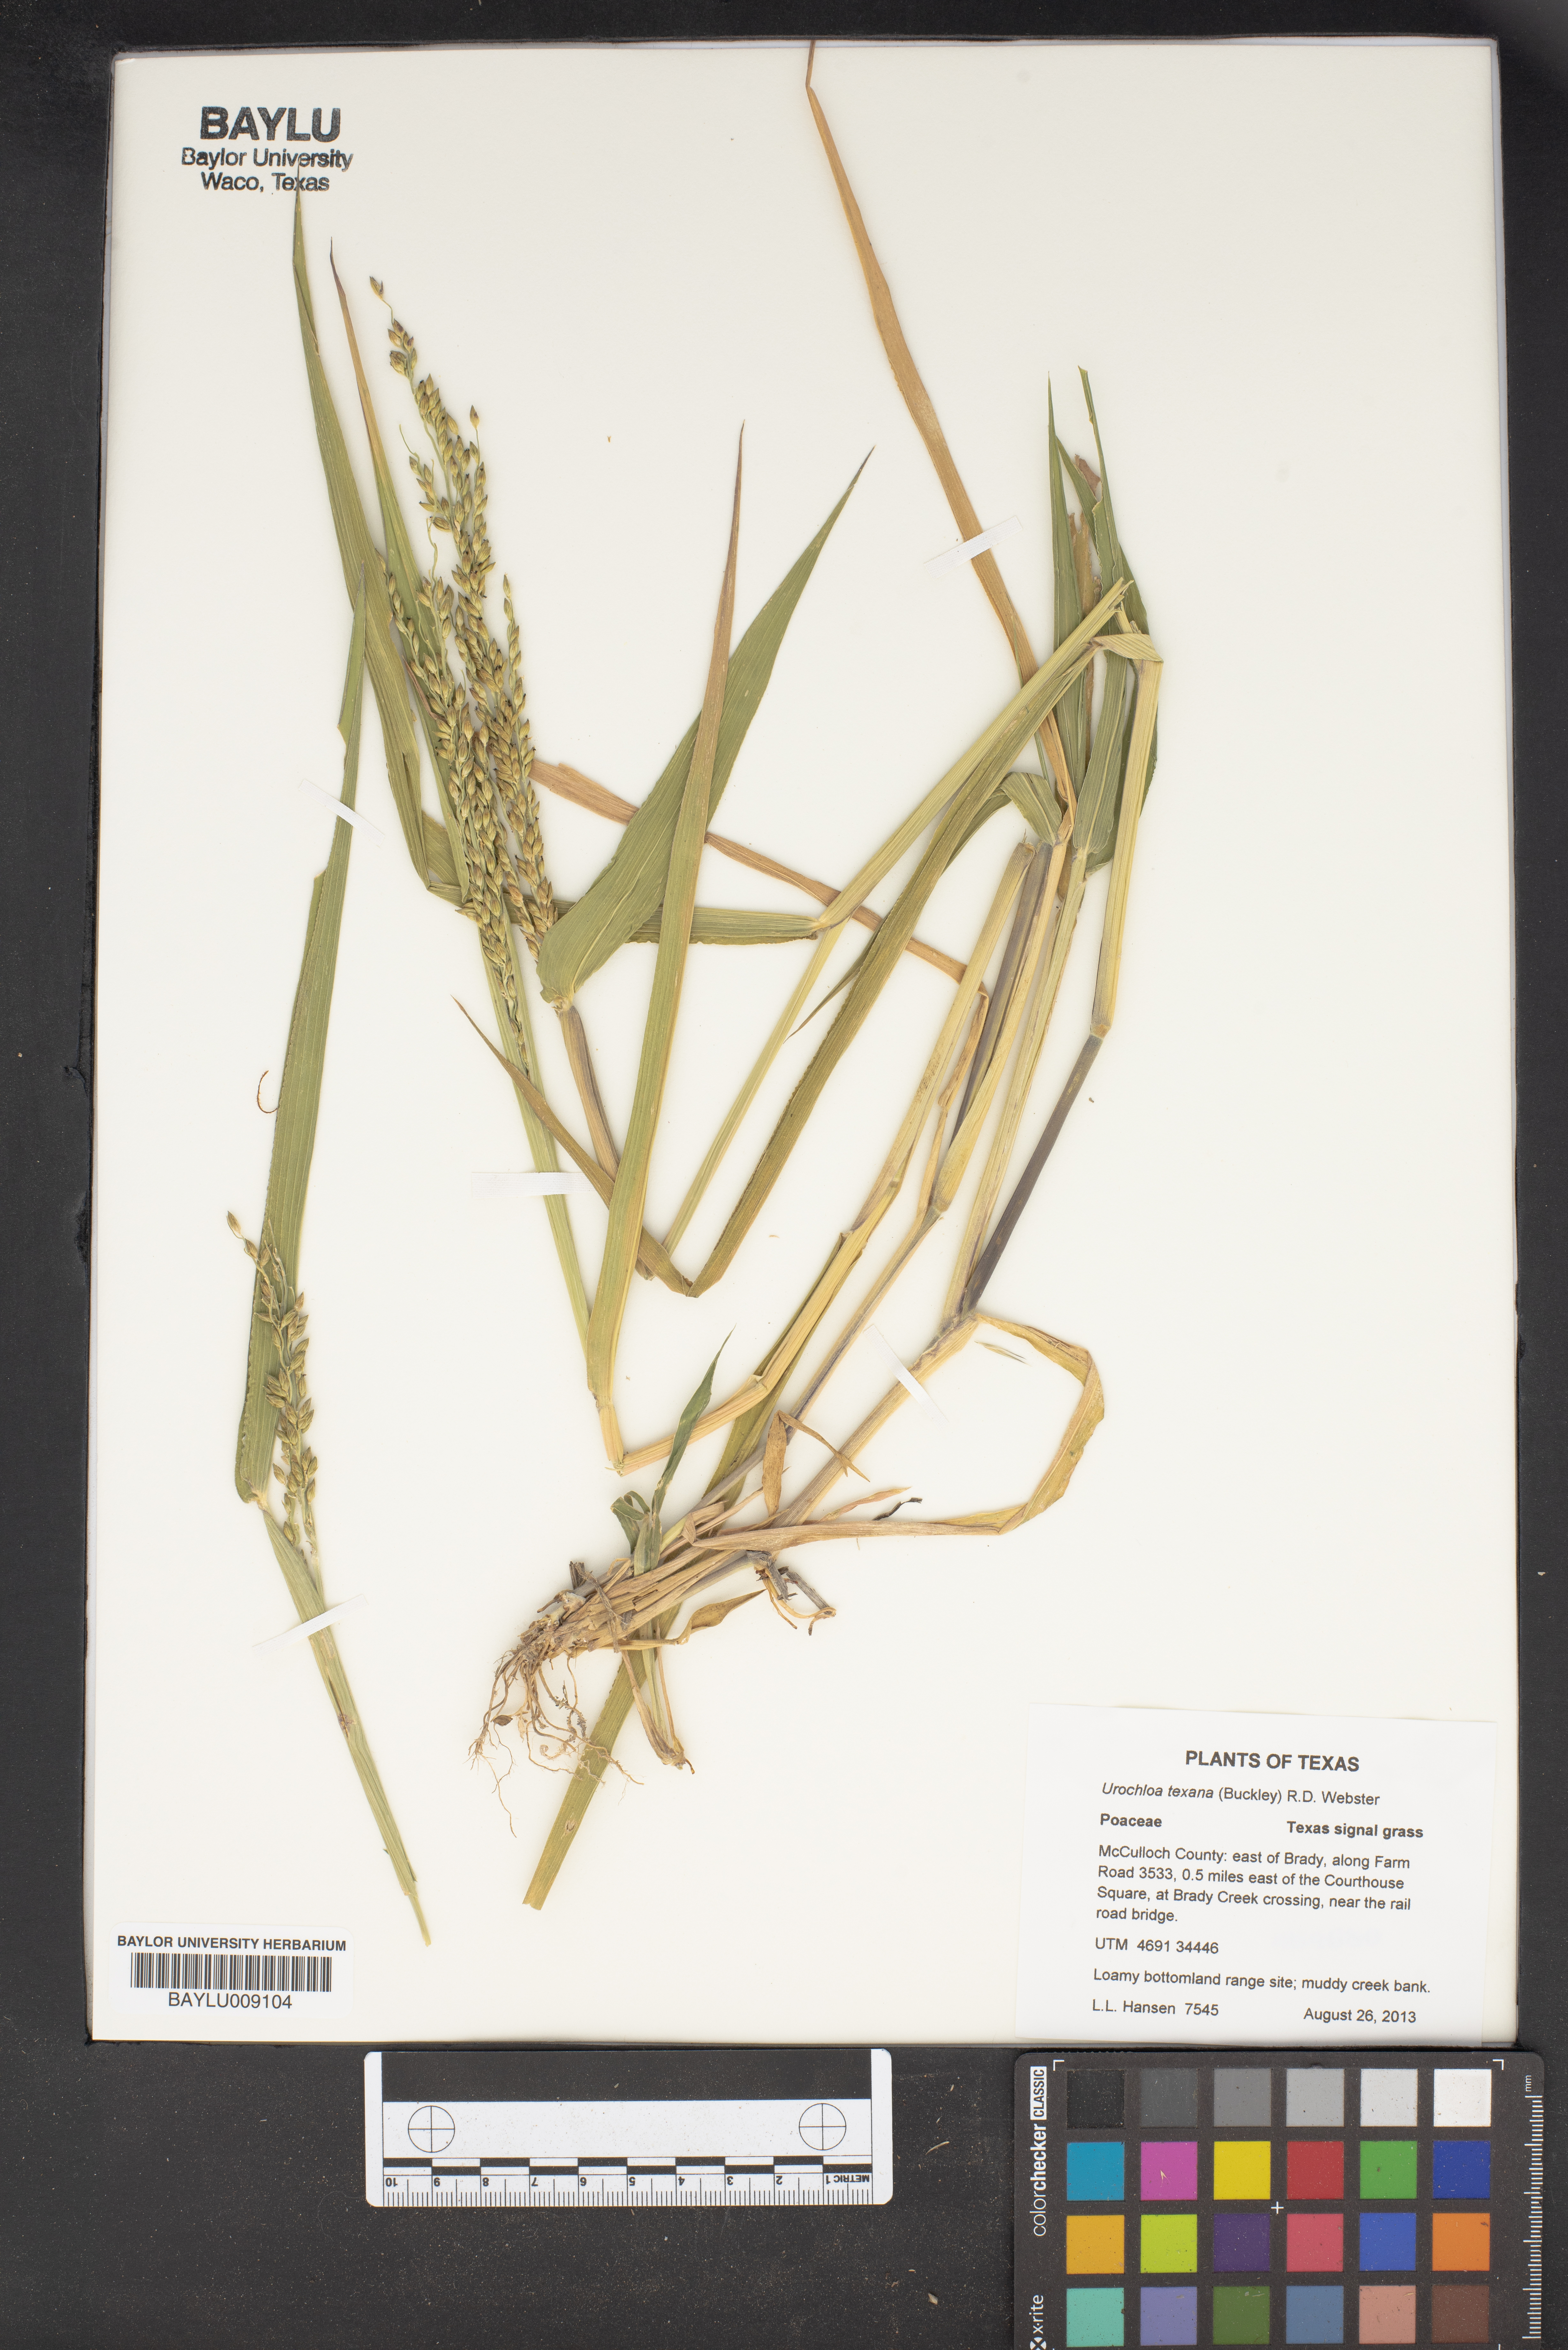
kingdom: Plantae
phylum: Tracheophyta
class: Liliopsida
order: Poales
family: Poaceae
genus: Urochloa
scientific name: Urochloa texana
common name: Texas millet
